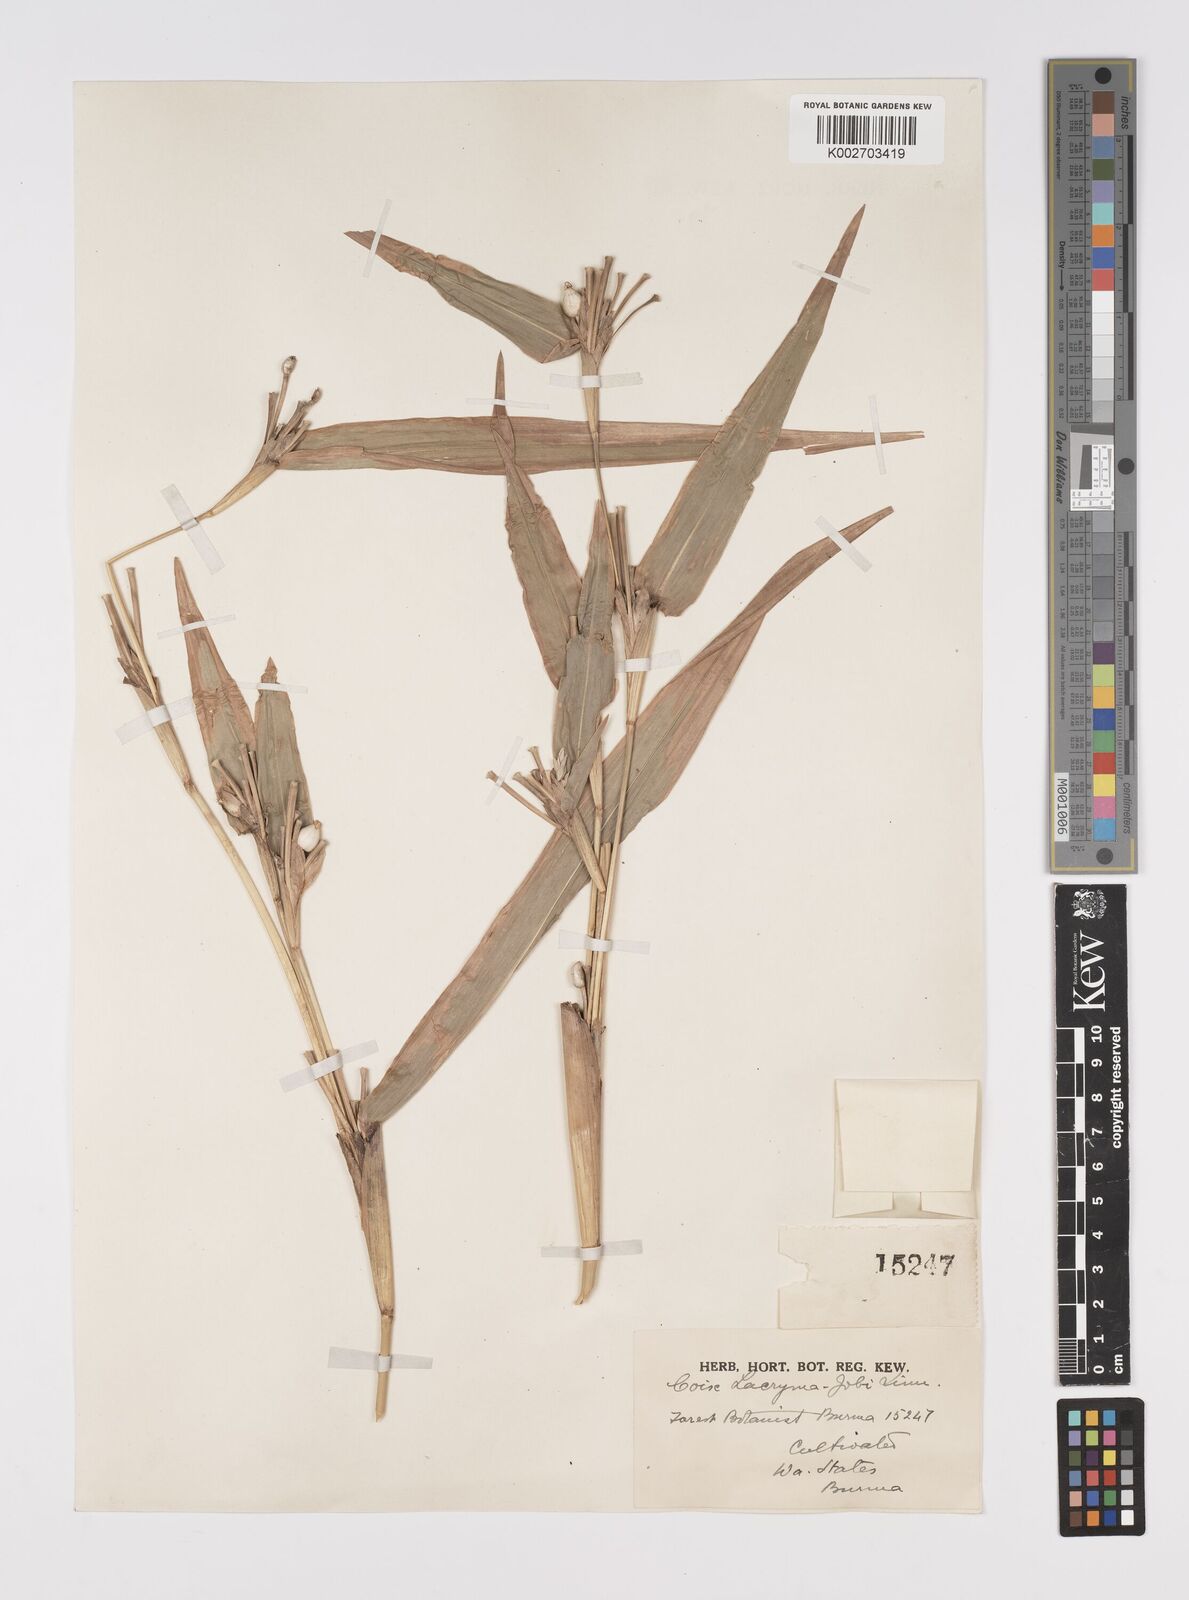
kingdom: Plantae
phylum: Tracheophyta
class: Liliopsida
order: Poales
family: Poaceae
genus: Coix
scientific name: Coix lacryma-jobi
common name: Job's tears
